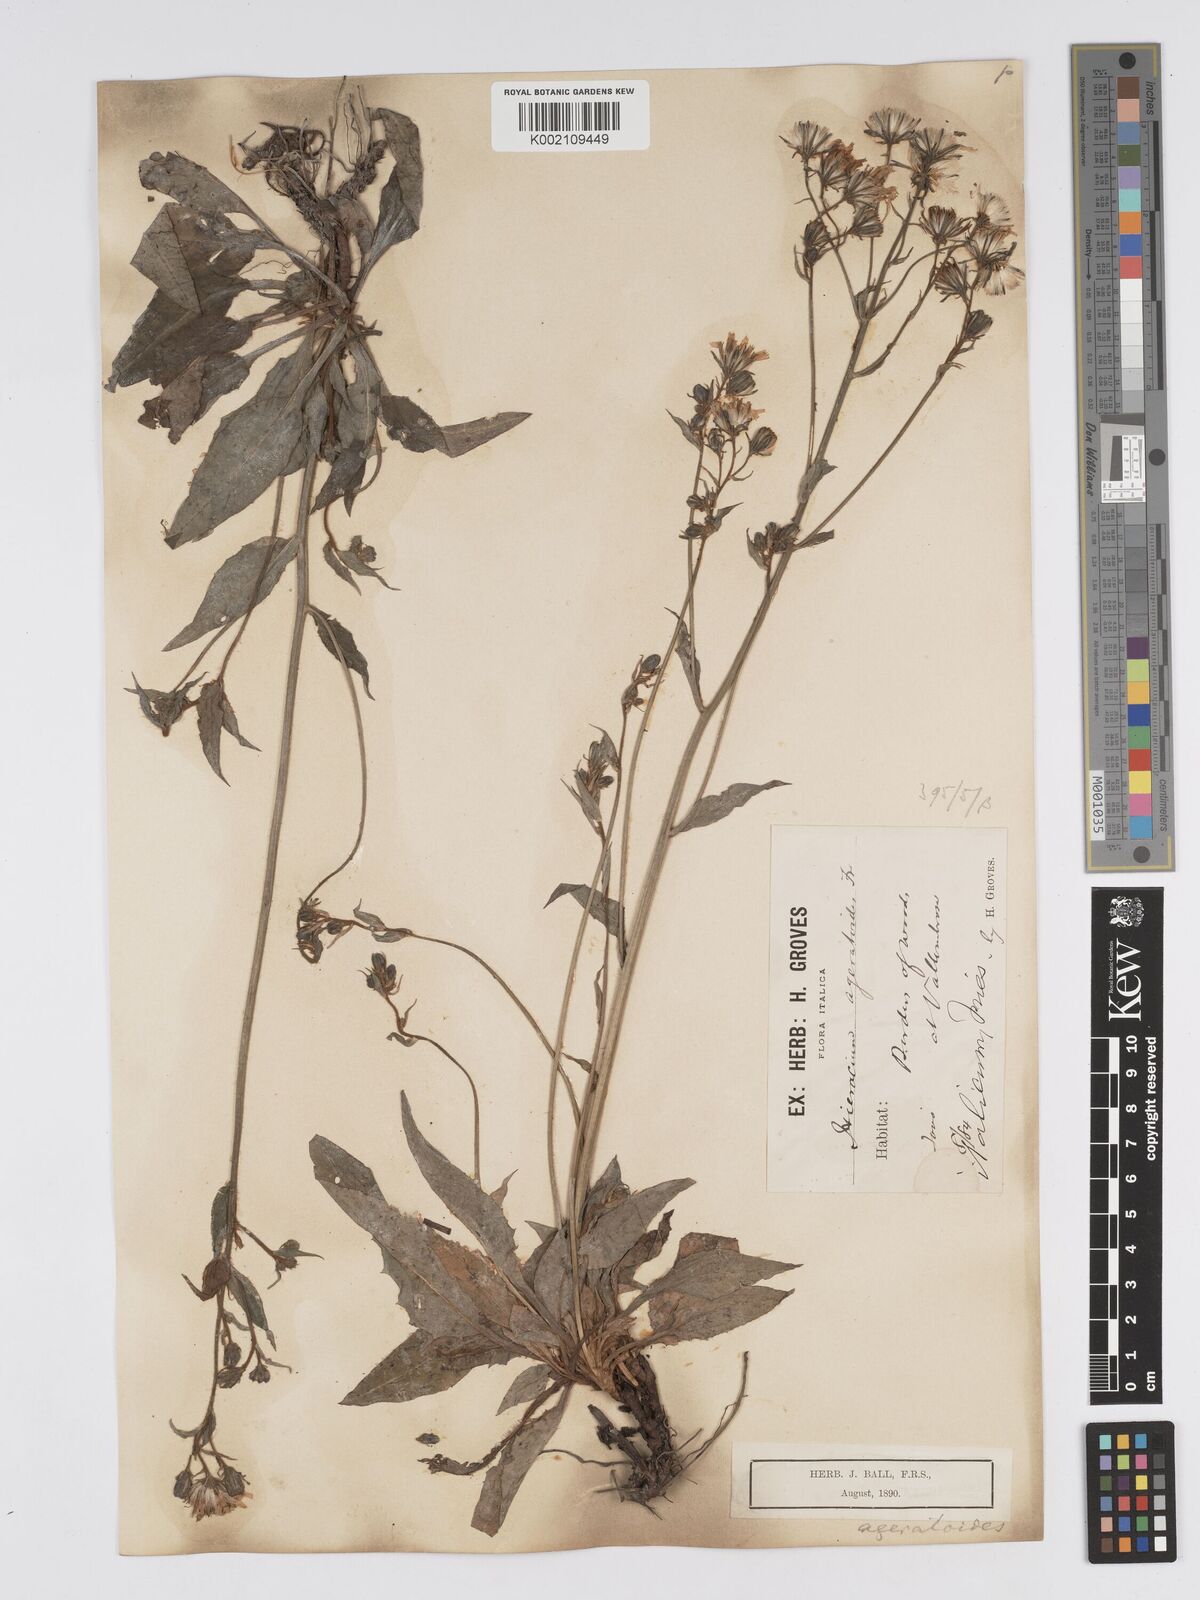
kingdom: Plantae
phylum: Tracheophyta
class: Magnoliopsida
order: Asterales
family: Asteraceae
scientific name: Asteraceae
